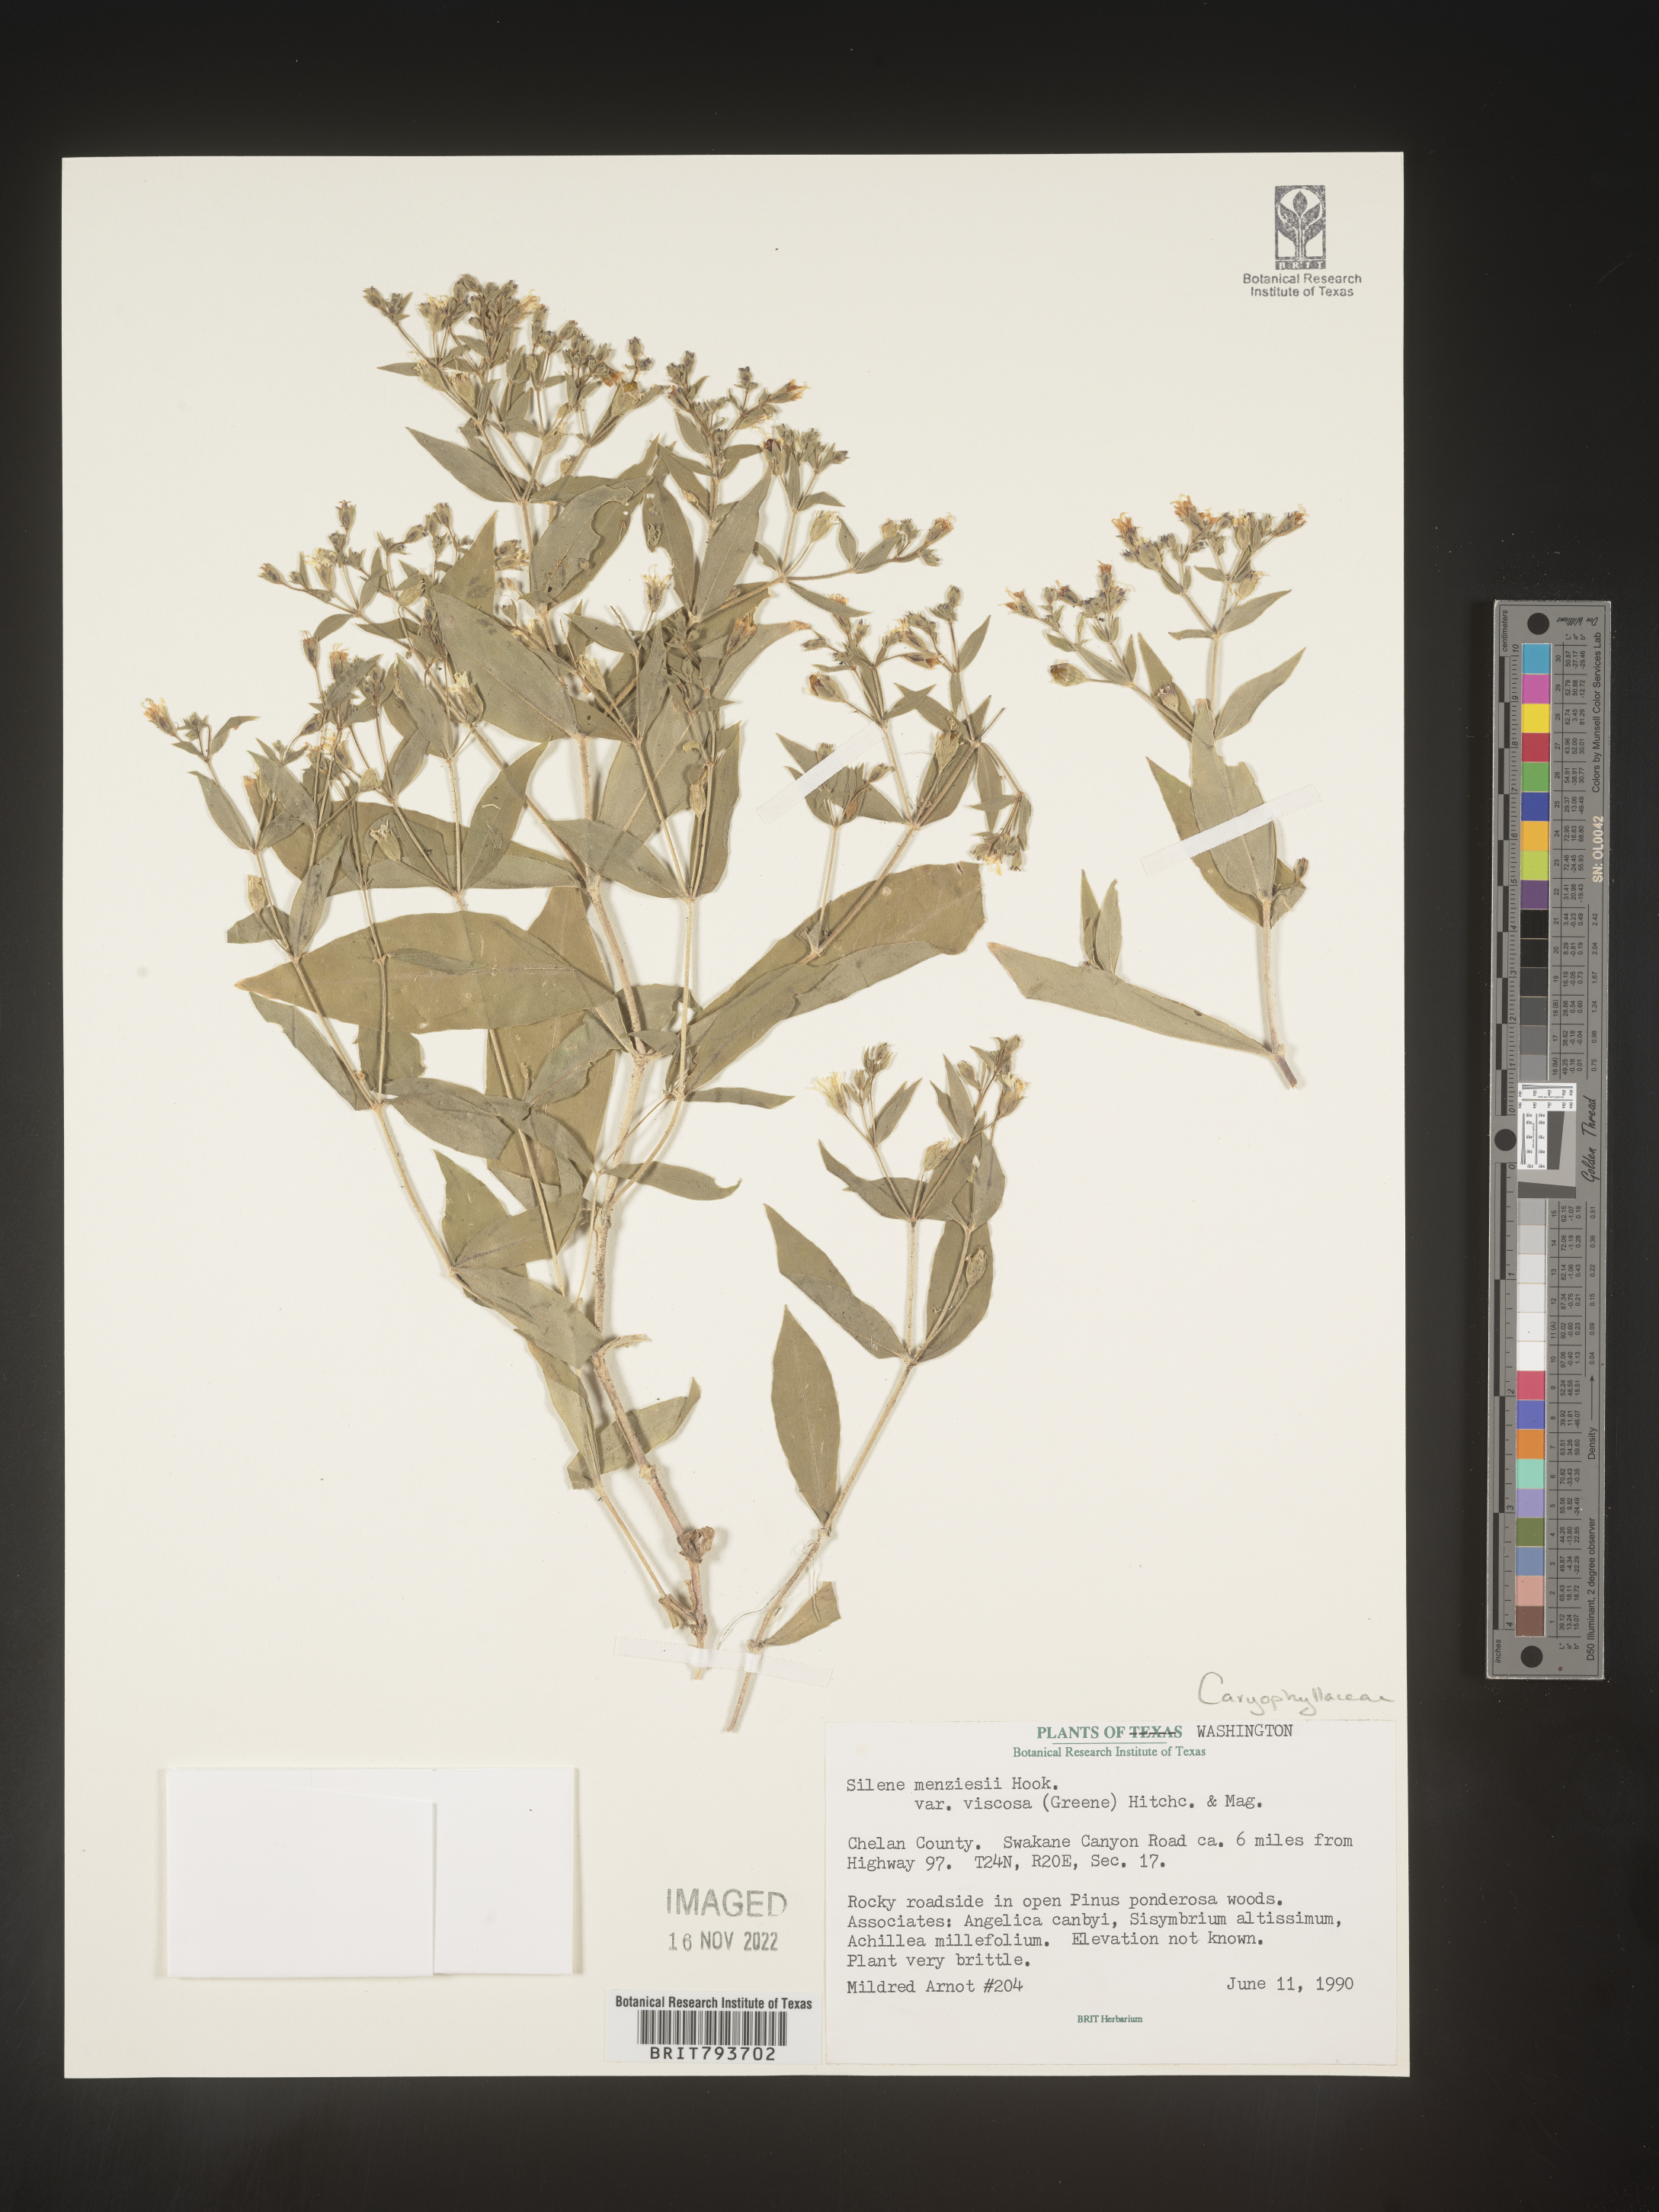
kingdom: Plantae
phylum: Tracheophyta
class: Magnoliopsida
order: Caryophyllales
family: Caryophyllaceae
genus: Silene
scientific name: Silene menziesii
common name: Menzies's catchfly
